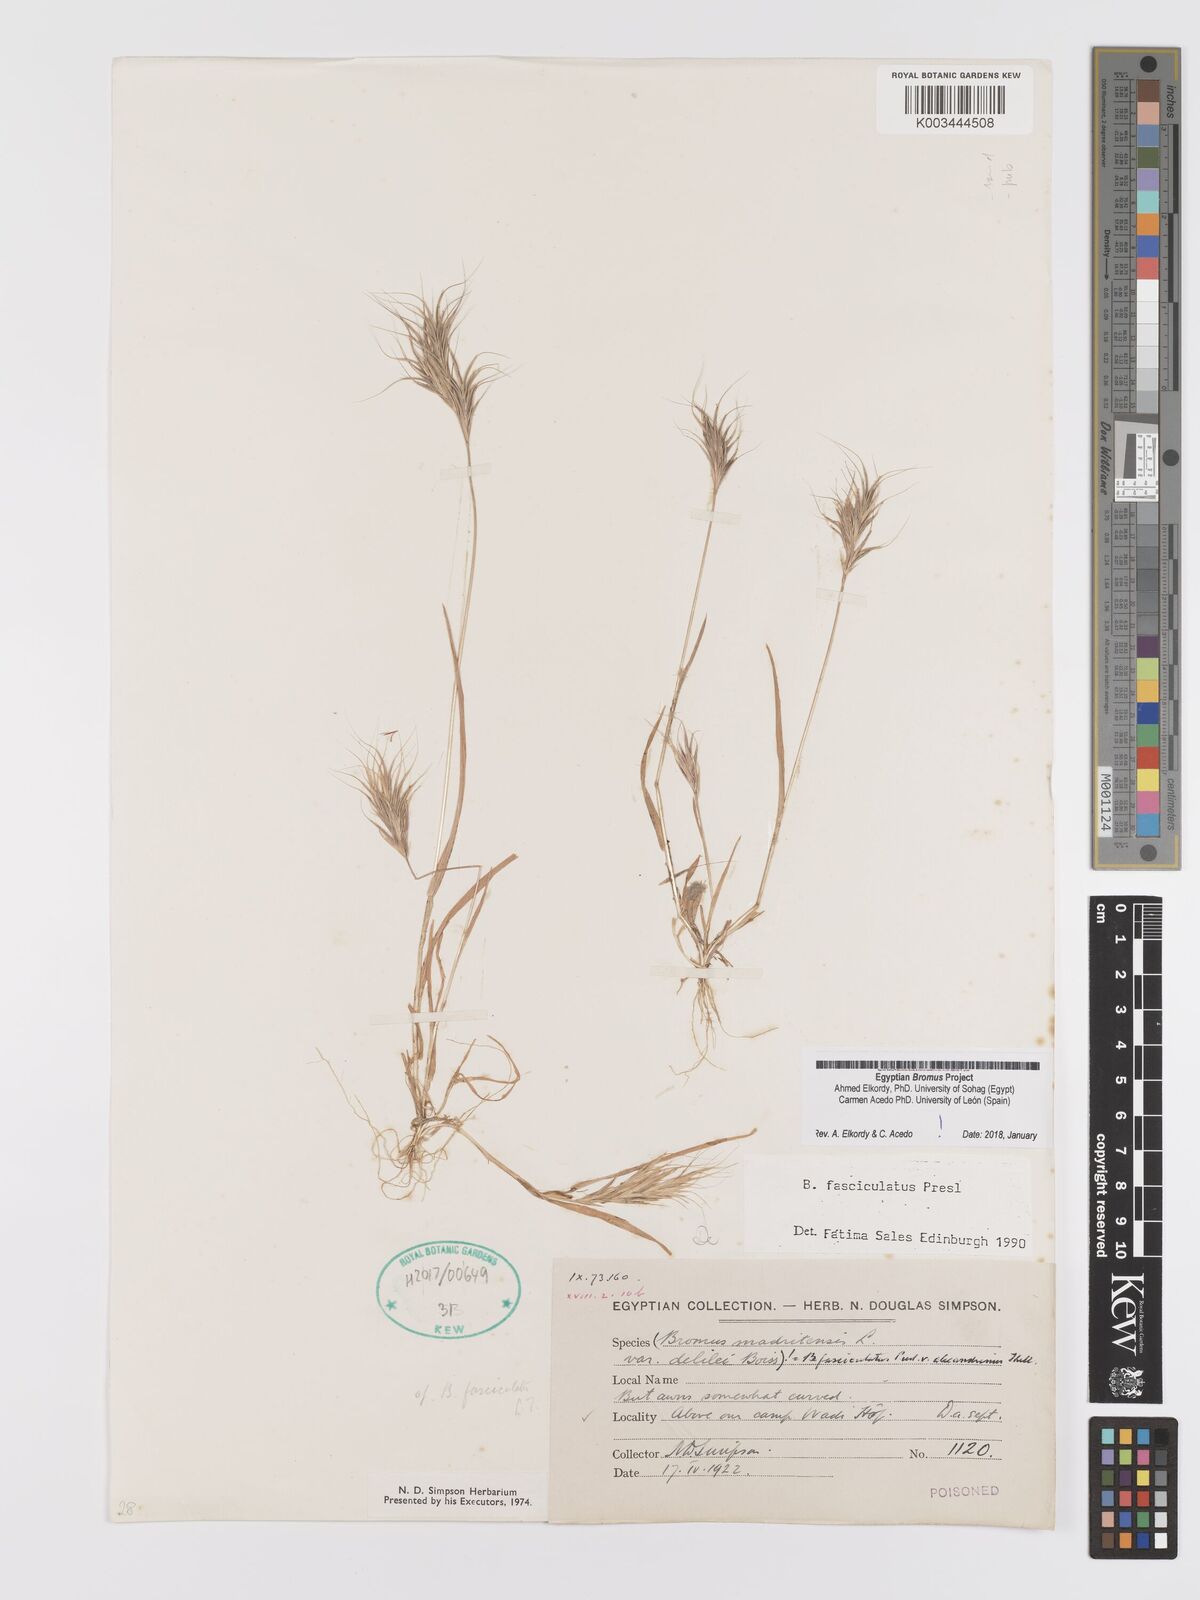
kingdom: Plantae
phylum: Tracheophyta
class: Liliopsida
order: Poales
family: Poaceae
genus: Bromus
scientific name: Bromus fasciculatus
